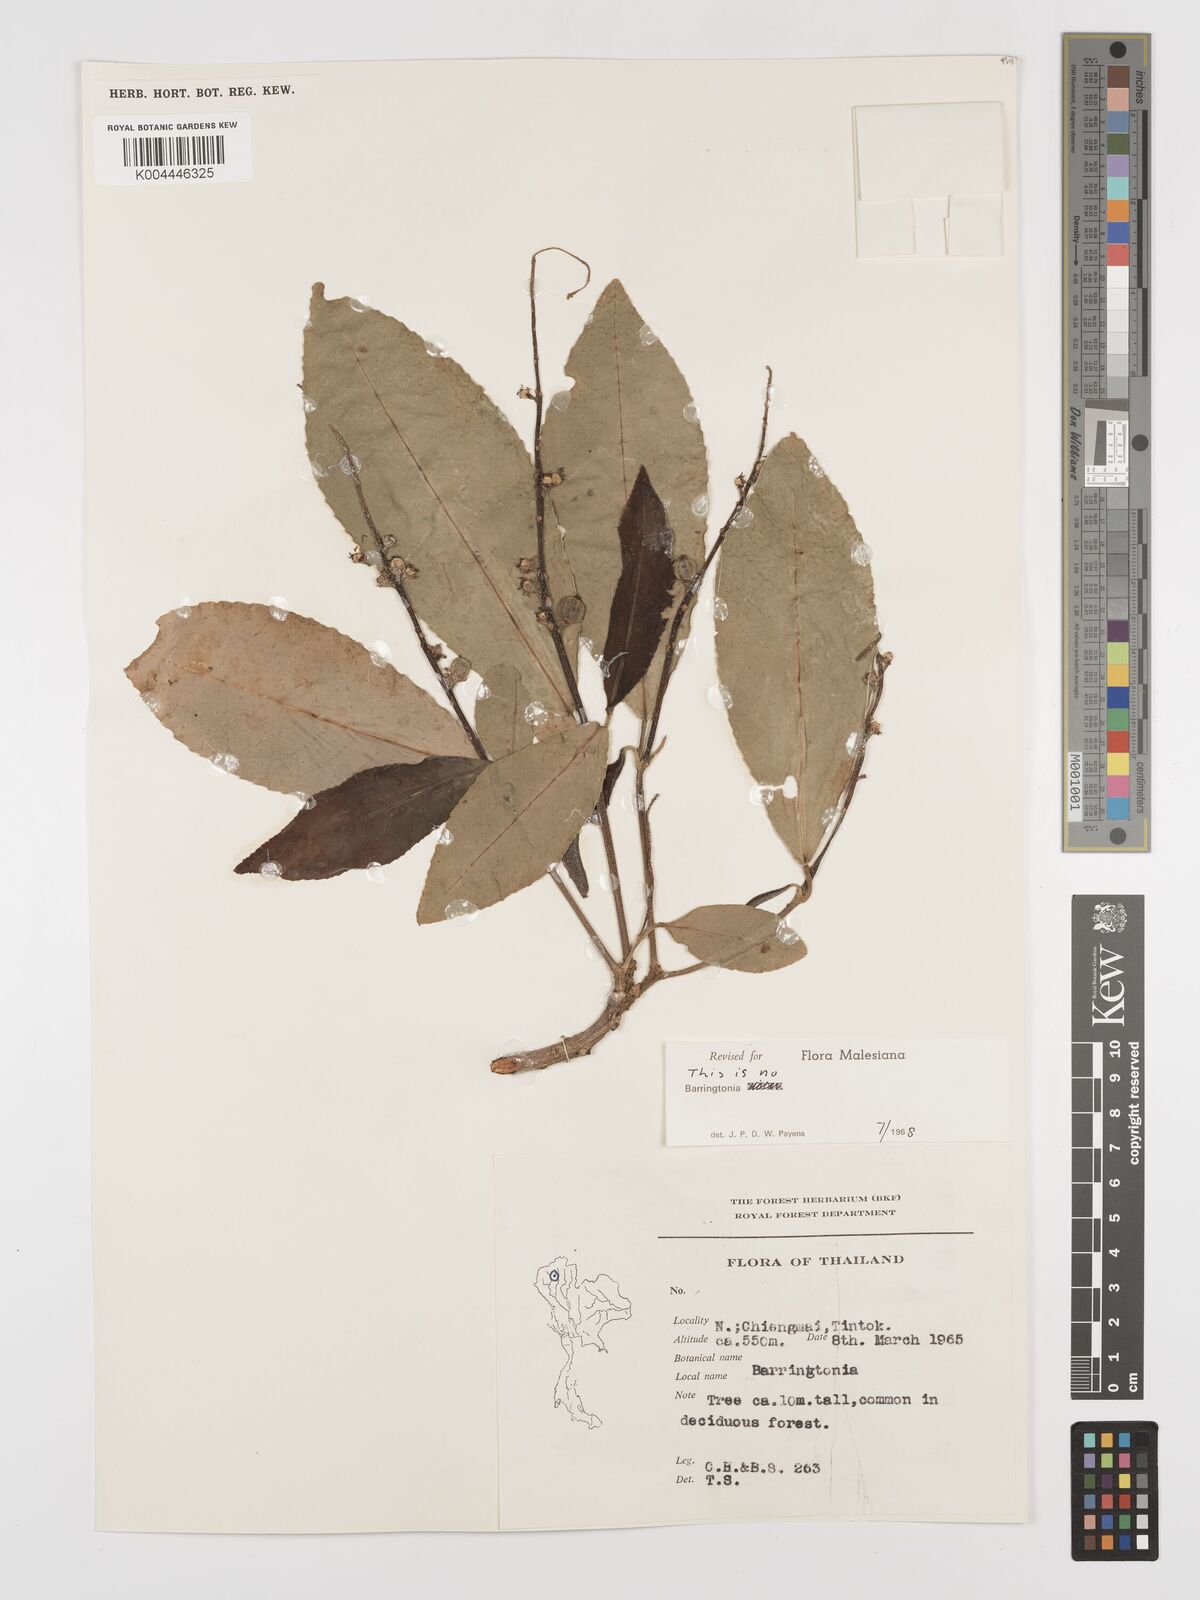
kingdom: Plantae
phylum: Tracheophyta
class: Magnoliopsida
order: Malpighiales
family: Euphorbiaceae
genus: Baliospermum
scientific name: Baliospermum solanifolium
